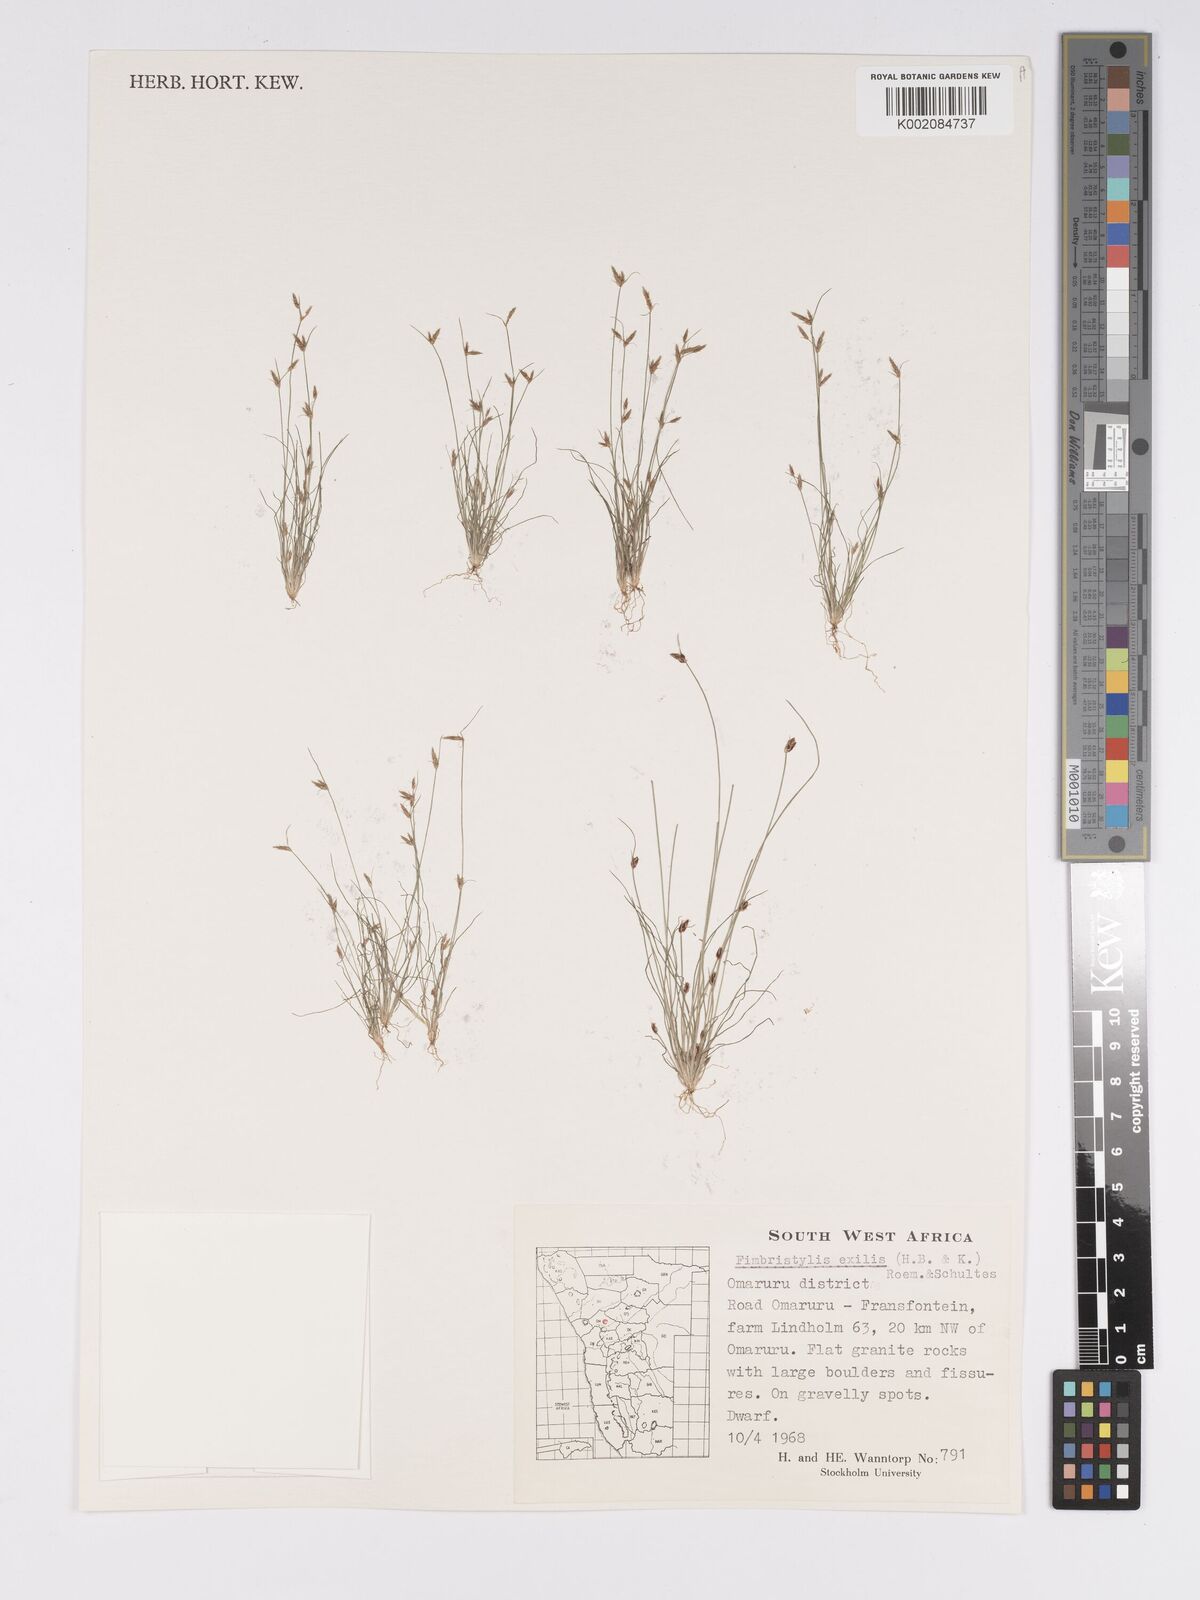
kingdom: Plantae
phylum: Tracheophyta
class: Liliopsida
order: Poales
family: Cyperaceae
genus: Bulbostylis
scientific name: Bulbostylis hispidula
